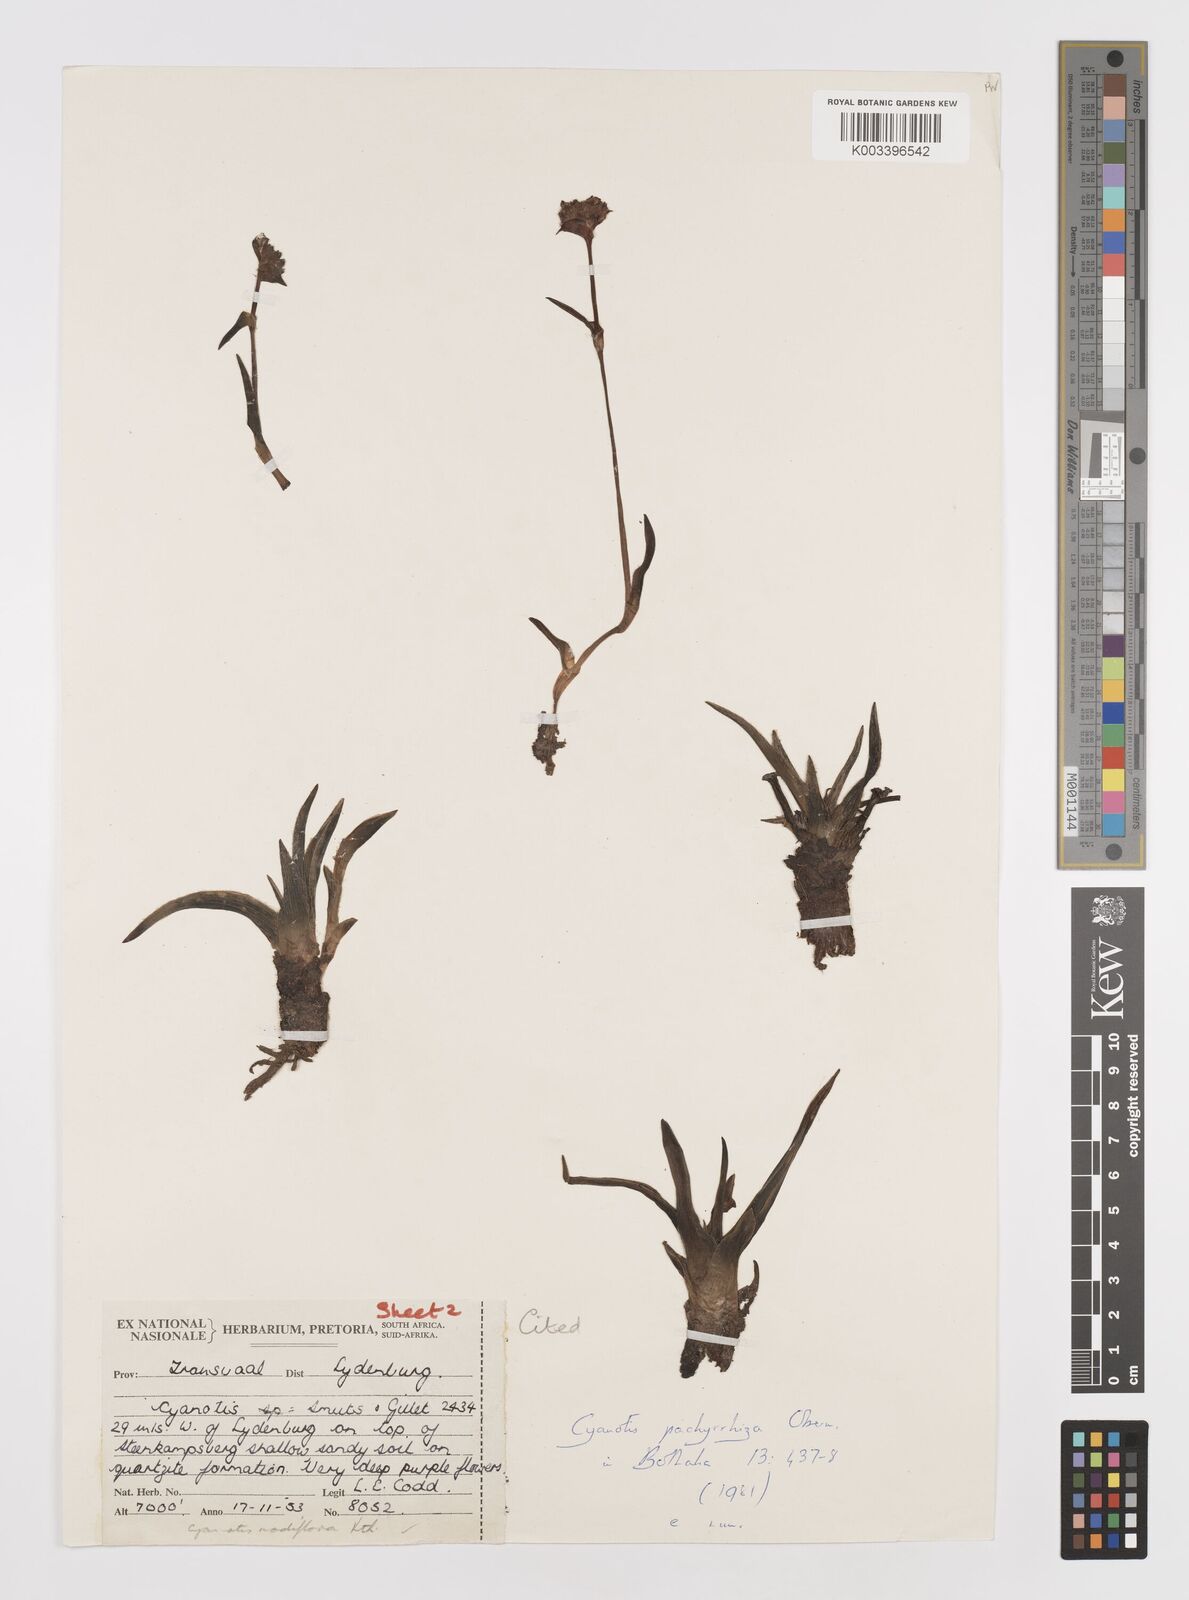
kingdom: Plantae
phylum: Tracheophyta
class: Liliopsida
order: Commelinales
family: Commelinaceae
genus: Cyanotis
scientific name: Cyanotis pachyrrhiza
